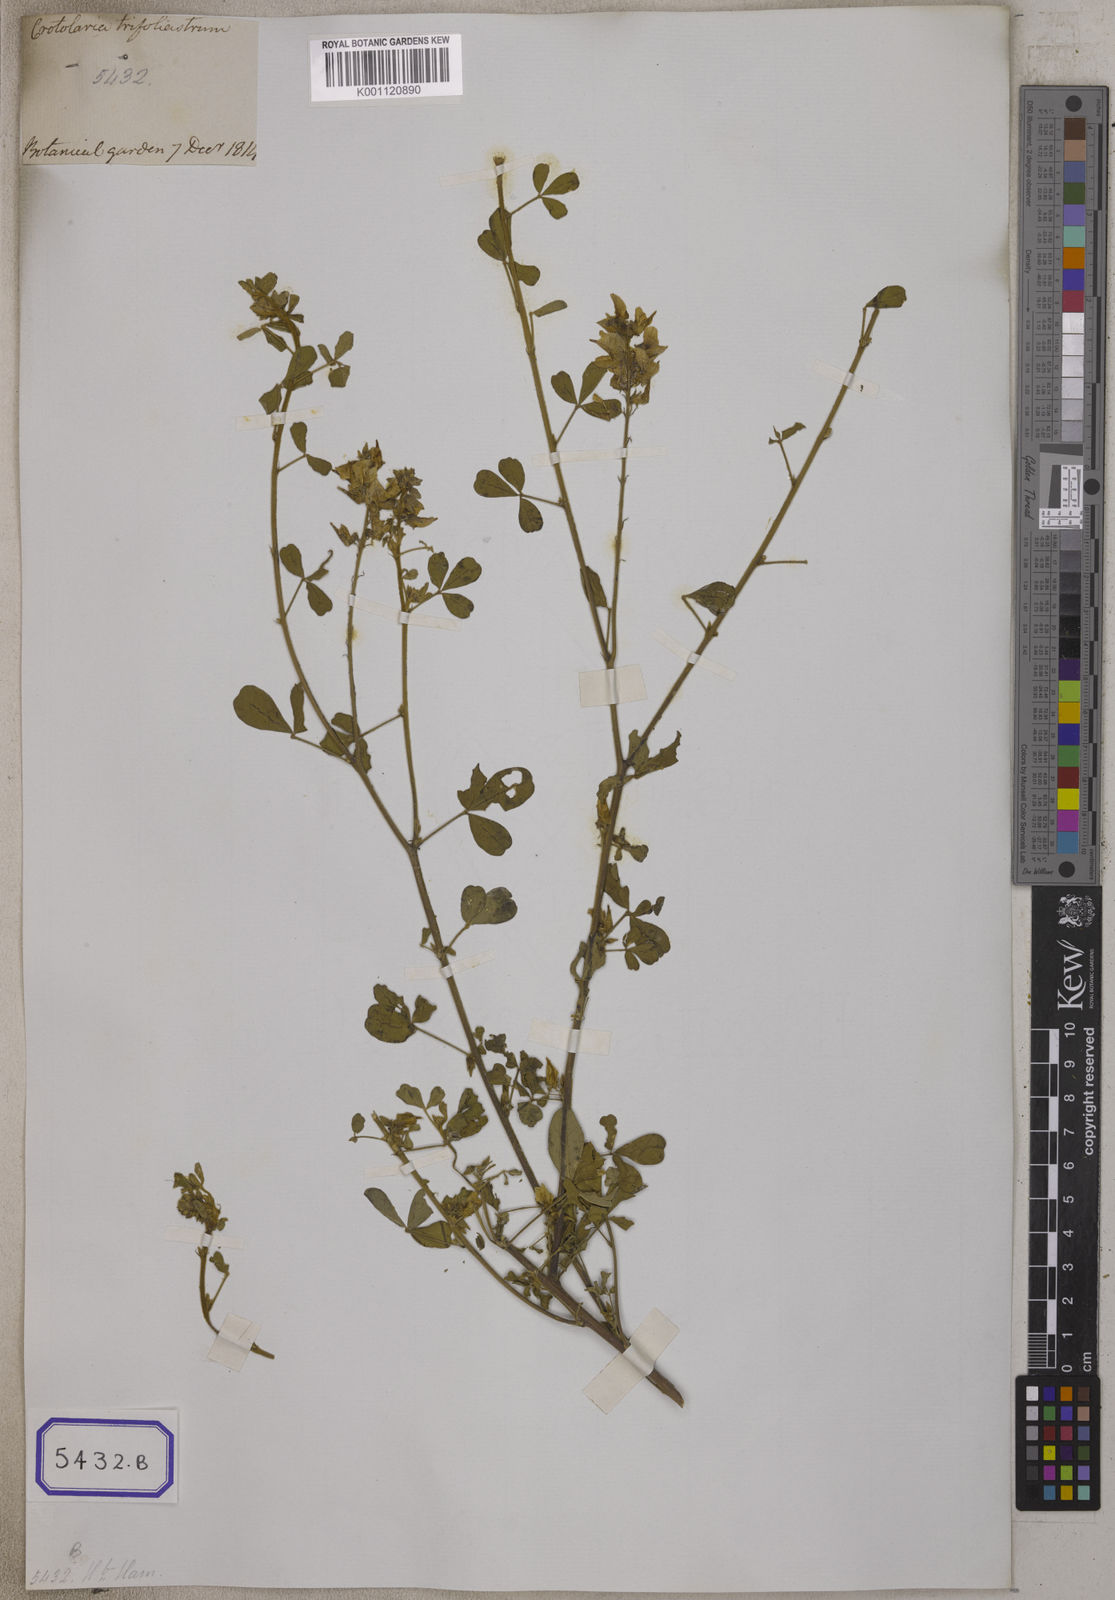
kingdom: Plantae
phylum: Tracheophyta
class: Magnoliopsida
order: Fabales
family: Fabaceae
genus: Crotalaria
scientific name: Crotalaria
